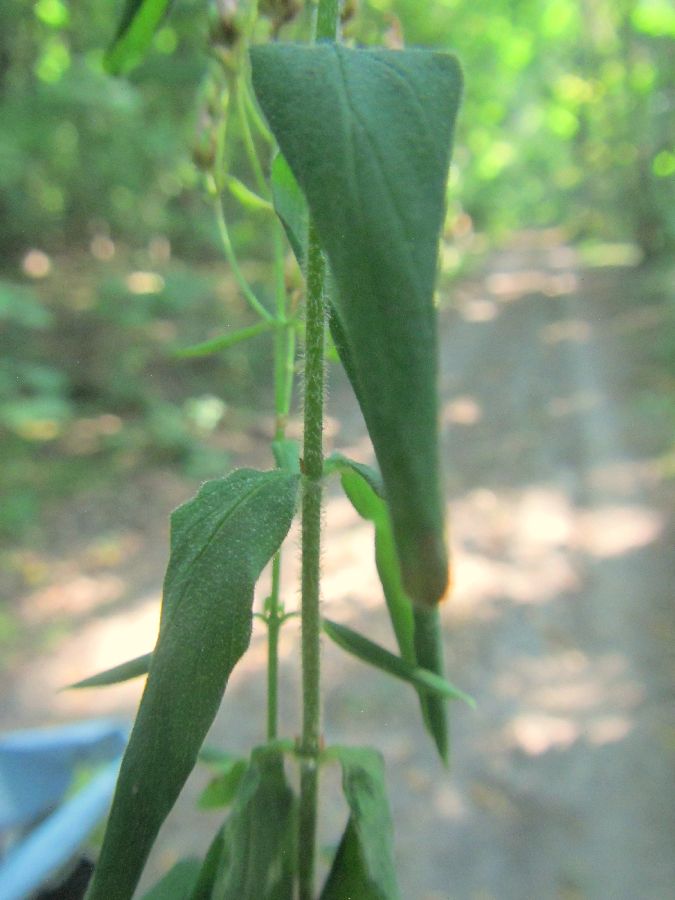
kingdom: Plantae
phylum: Tracheophyta
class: Magnoliopsida
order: Malpighiales
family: Hypericaceae
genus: Hypericum
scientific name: Hypericum hirsutum
